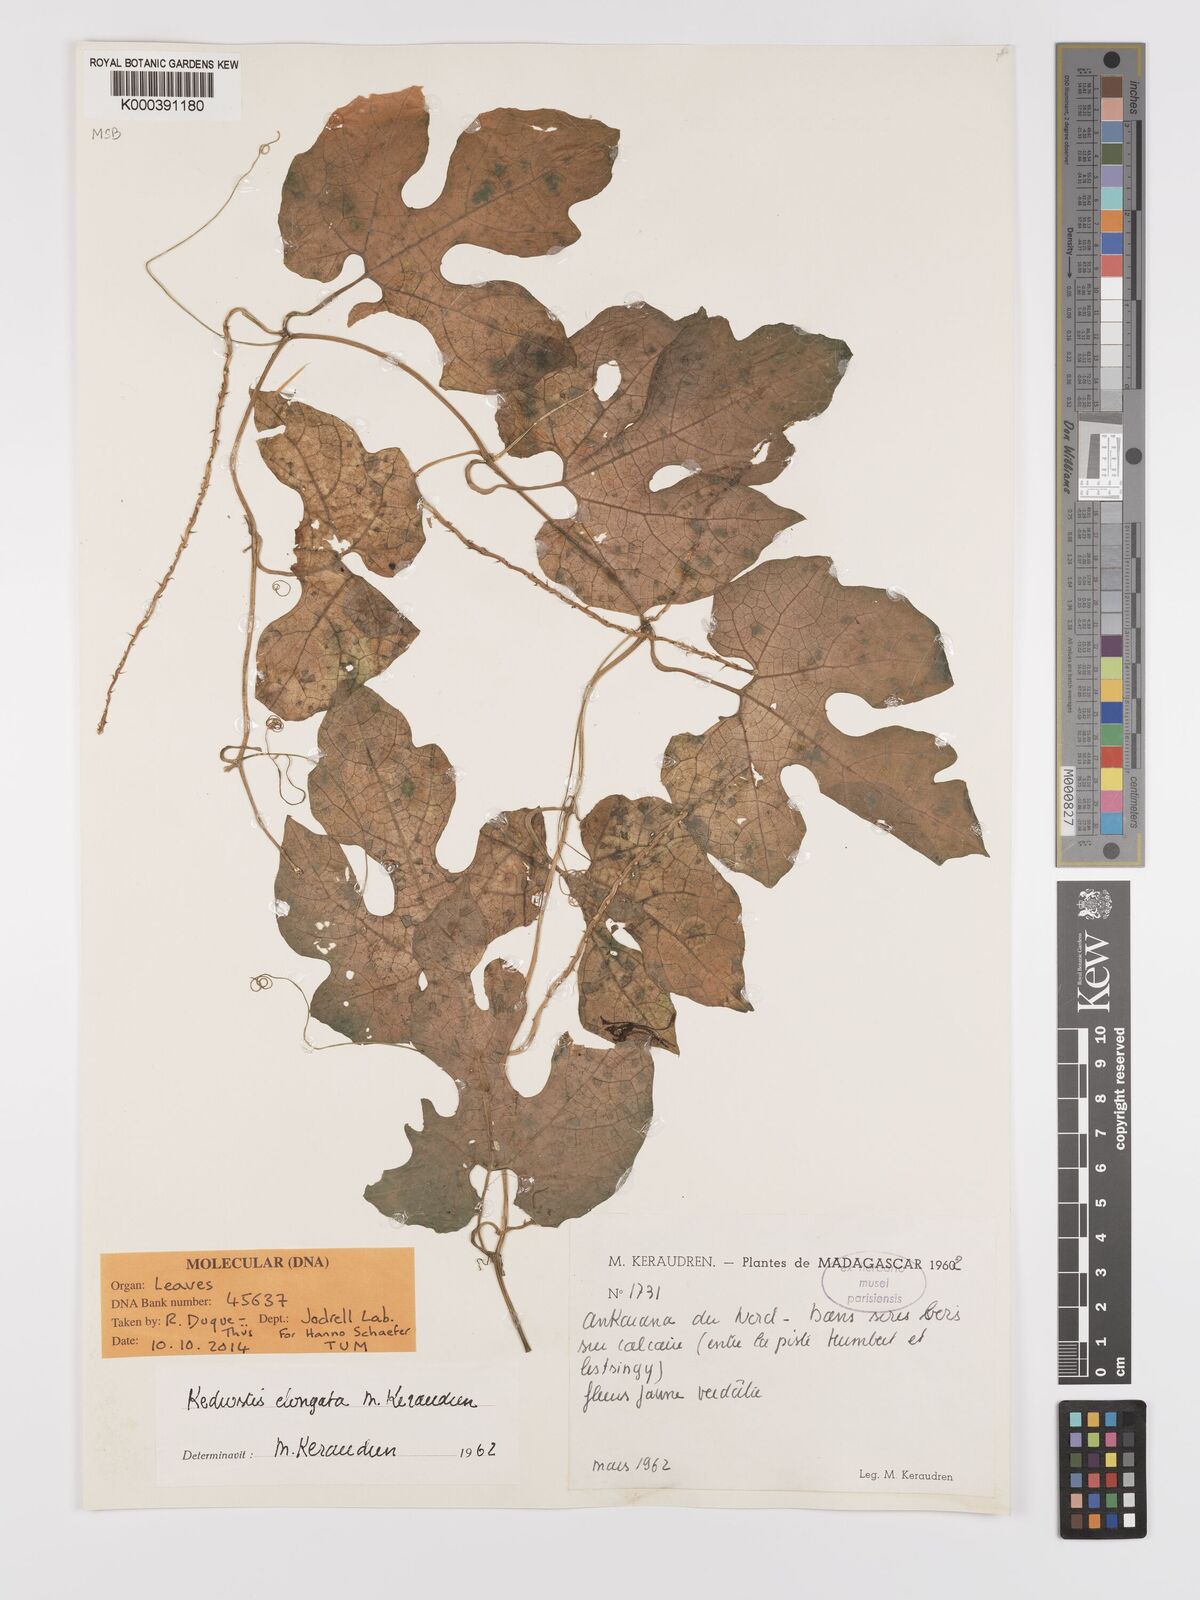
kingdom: Plantae
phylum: Tracheophyta
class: Magnoliopsida
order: Cucurbitales
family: Cucurbitaceae
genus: Kedrostis
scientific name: Kedrostis elongata
